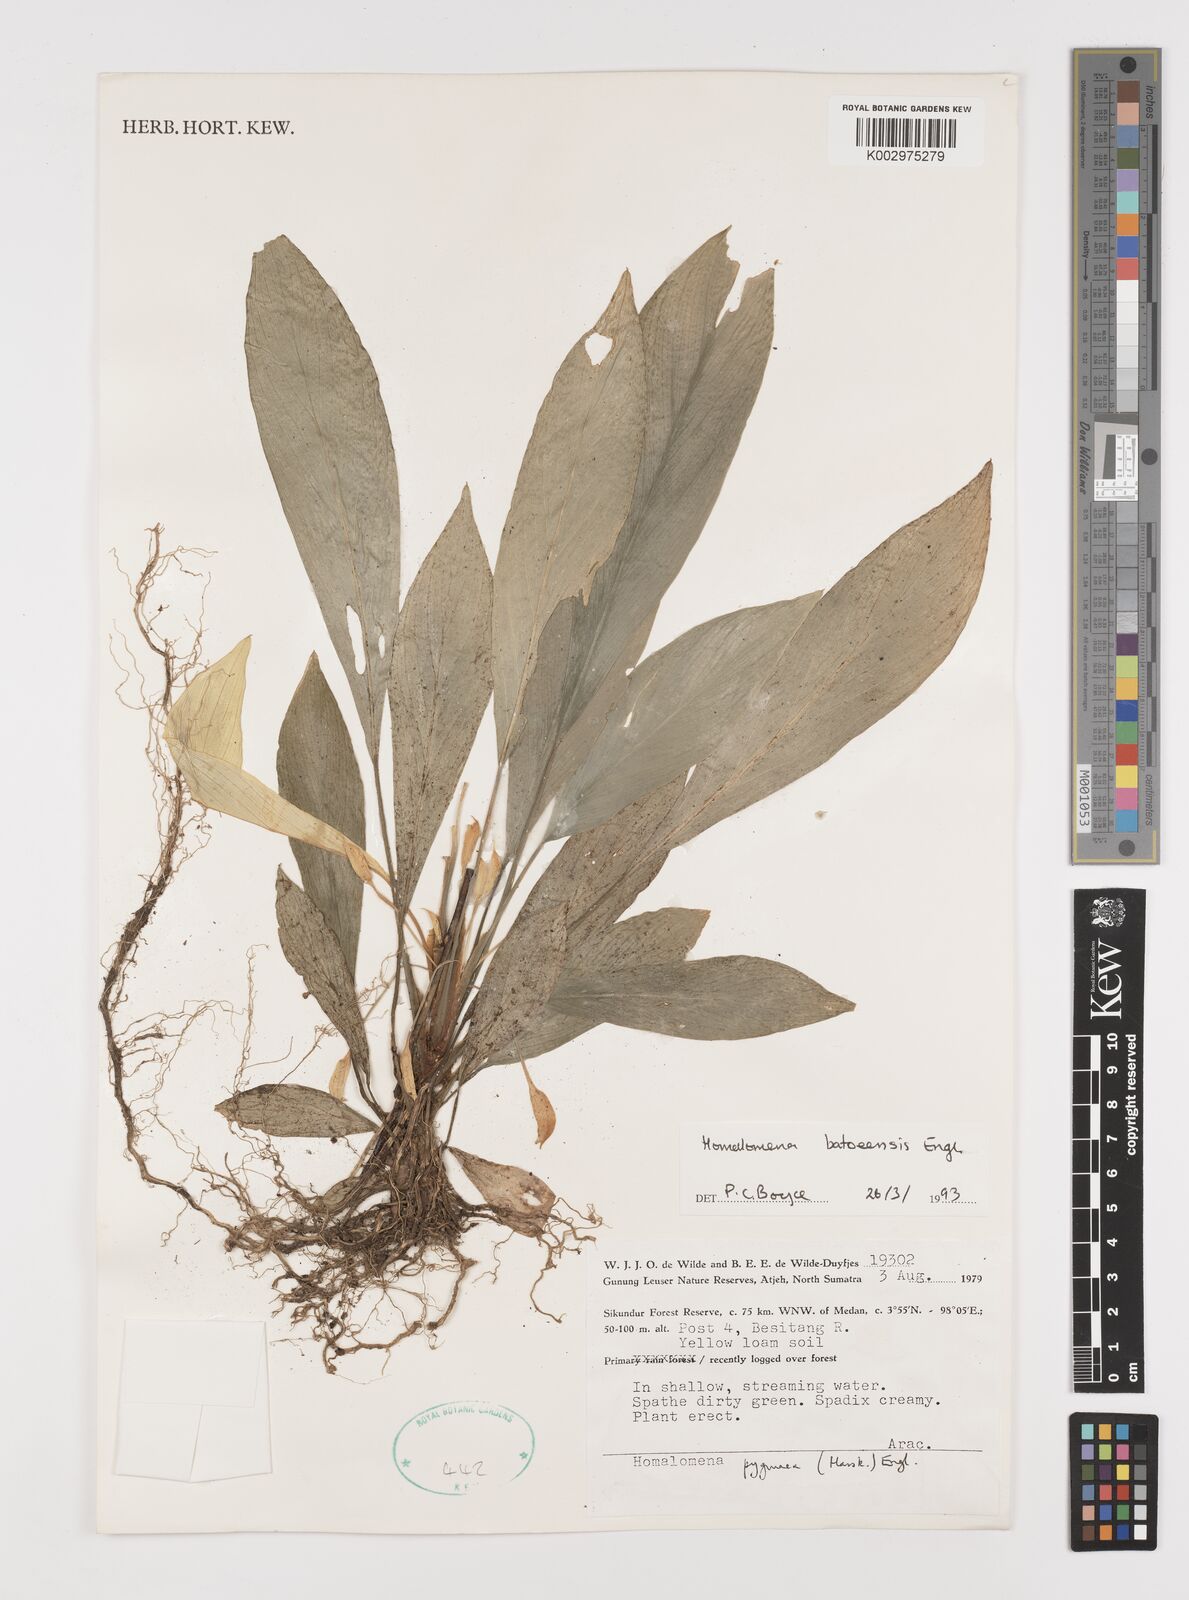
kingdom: Plantae
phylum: Tracheophyta
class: Liliopsida
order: Alismatales
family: Araceae
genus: Homalomena
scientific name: Homalomena batoeensis
